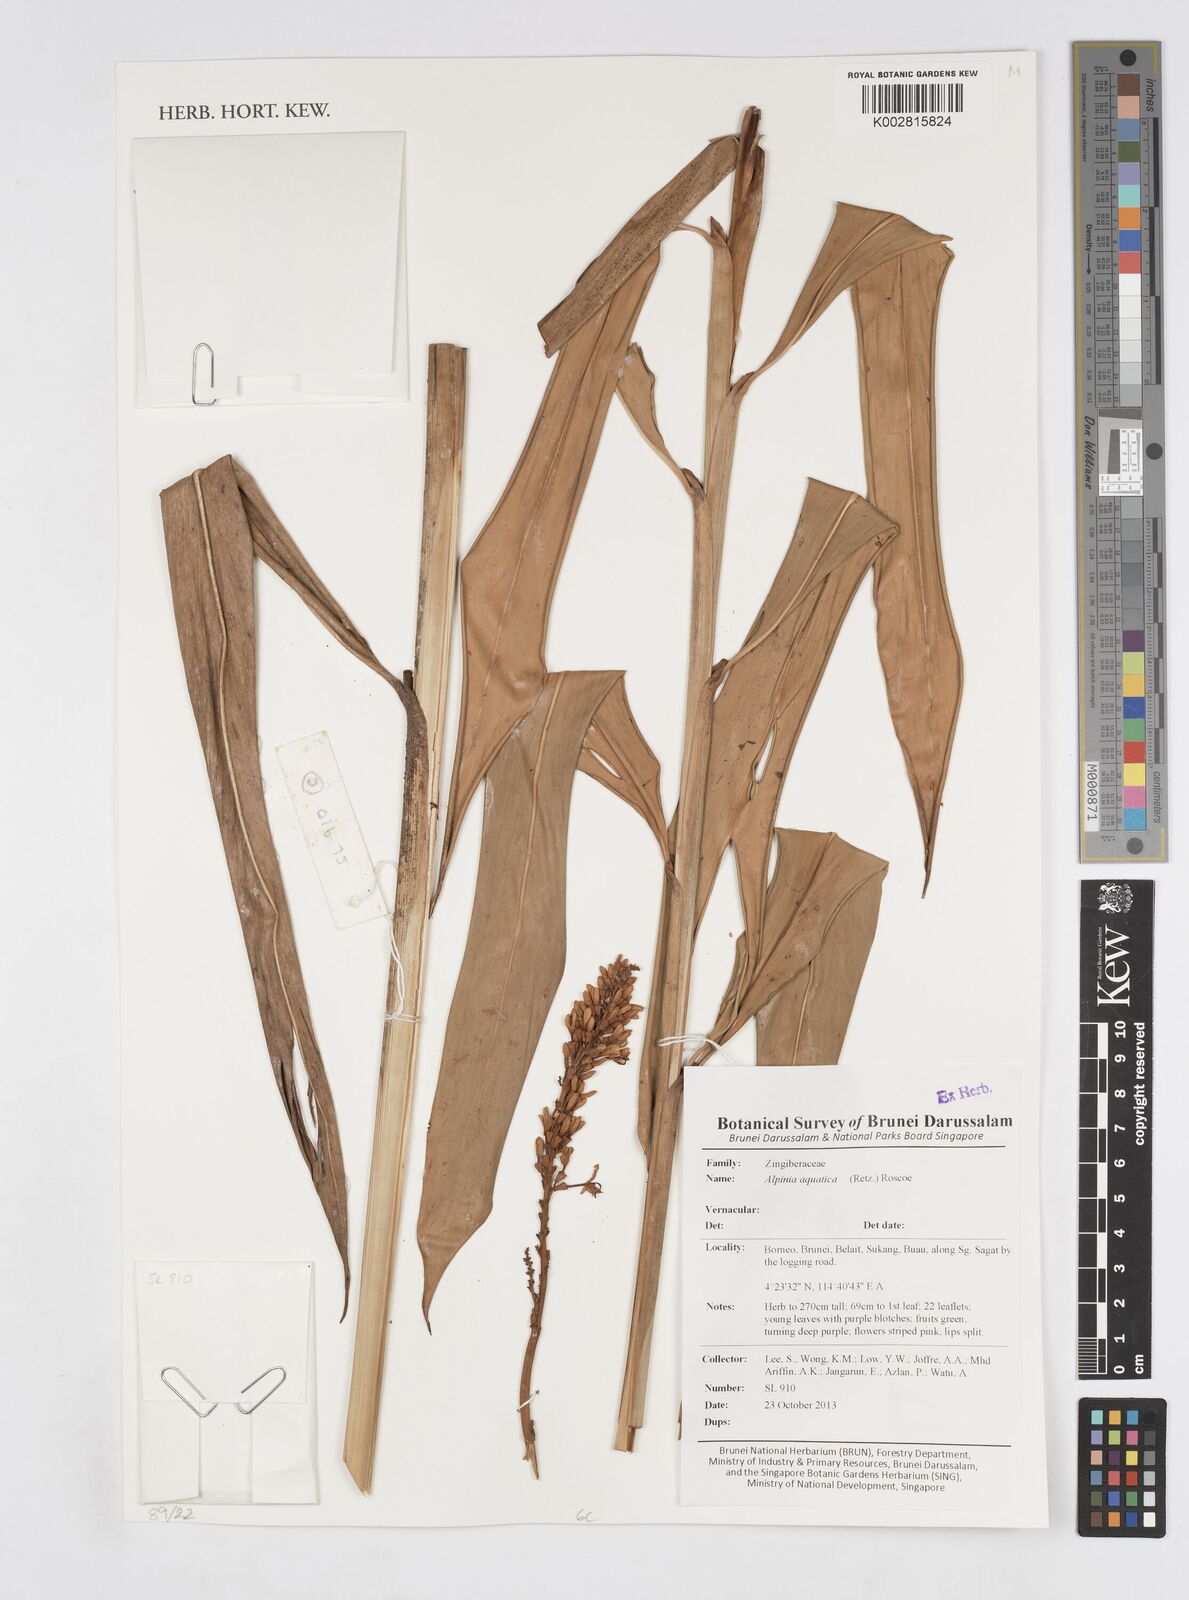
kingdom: Plantae
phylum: Tracheophyta
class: Liliopsida
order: Zingiberales
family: Zingiberaceae
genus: Alpinia
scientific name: Alpinia aquatica
